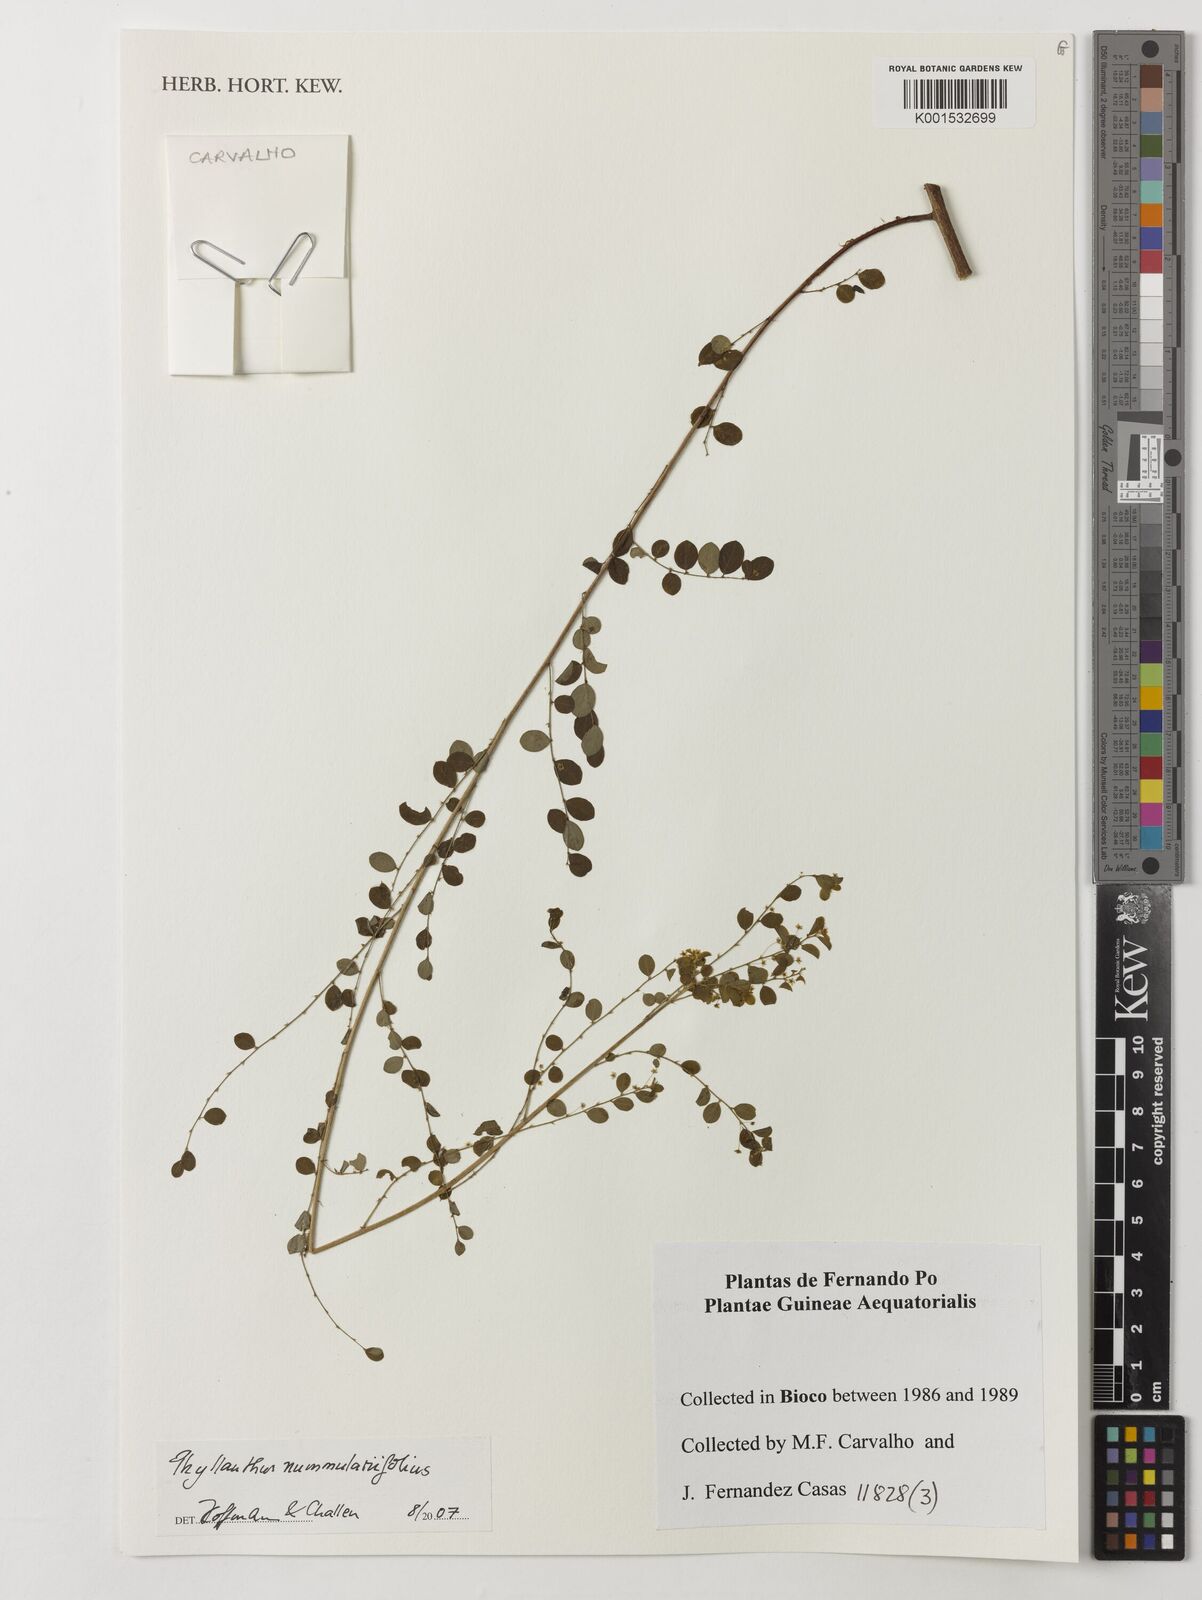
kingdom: Plantae
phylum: Tracheophyta
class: Magnoliopsida
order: Malpighiales
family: Phyllanthaceae
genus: Phyllanthus
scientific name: Phyllanthus nummulariifolius
